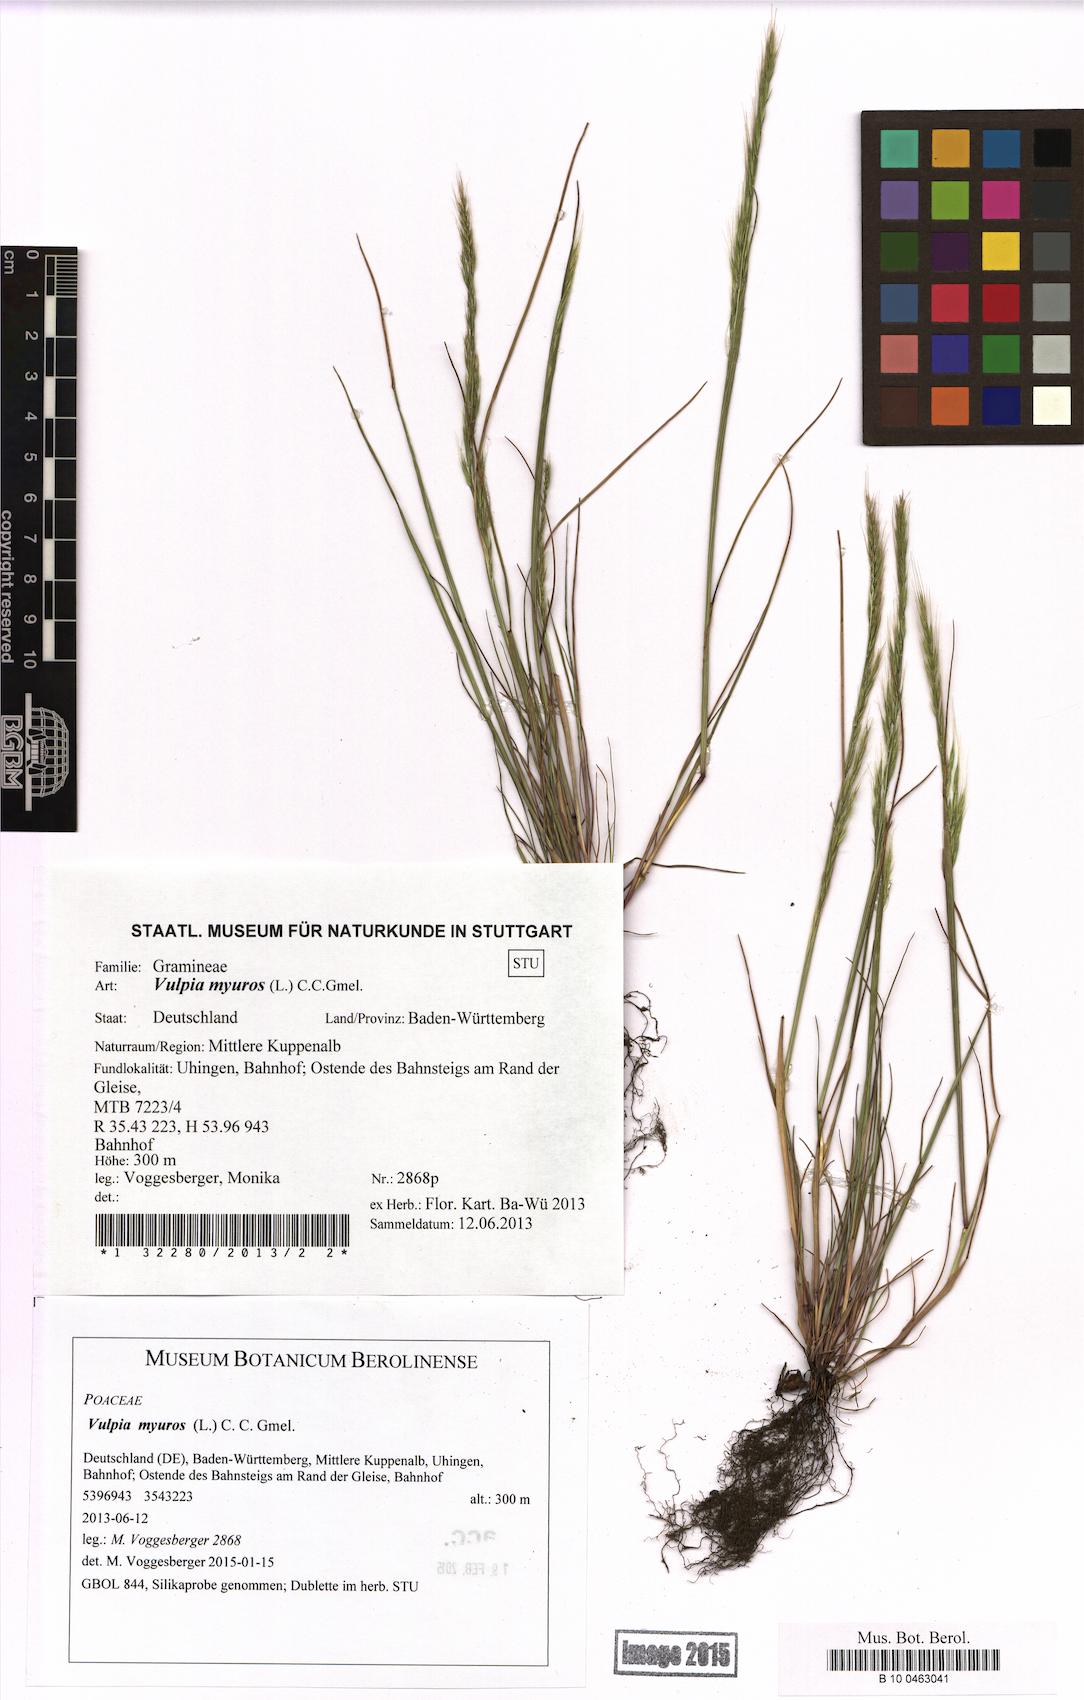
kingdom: Plantae
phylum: Tracheophyta
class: Liliopsida
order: Poales
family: Poaceae
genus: Festuca
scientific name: Festuca myuros
